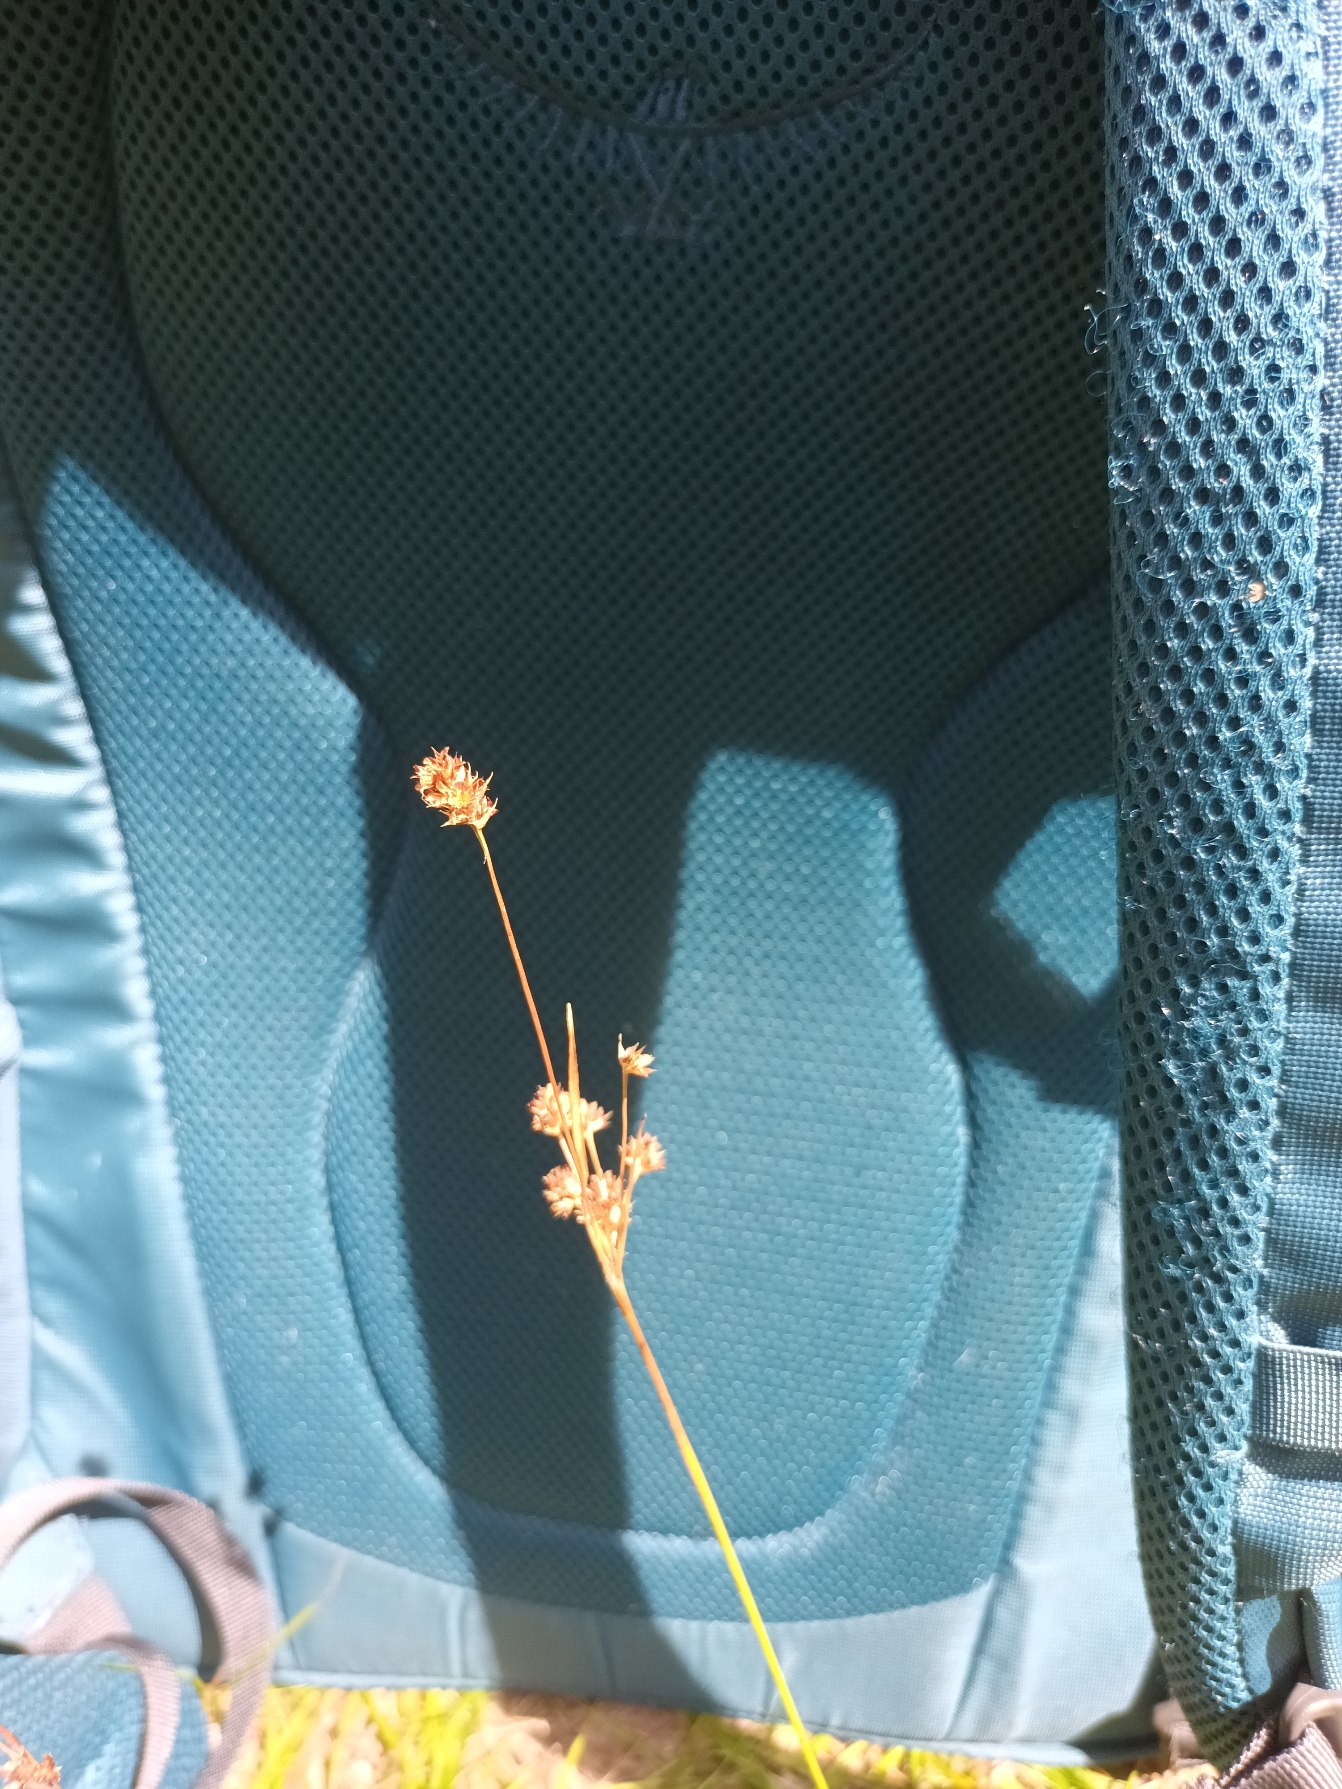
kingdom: Plantae
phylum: Tracheophyta
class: Liliopsida
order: Poales
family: Juncaceae
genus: Luzula
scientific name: Luzula multiflora
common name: Mangeblomstret frytle
